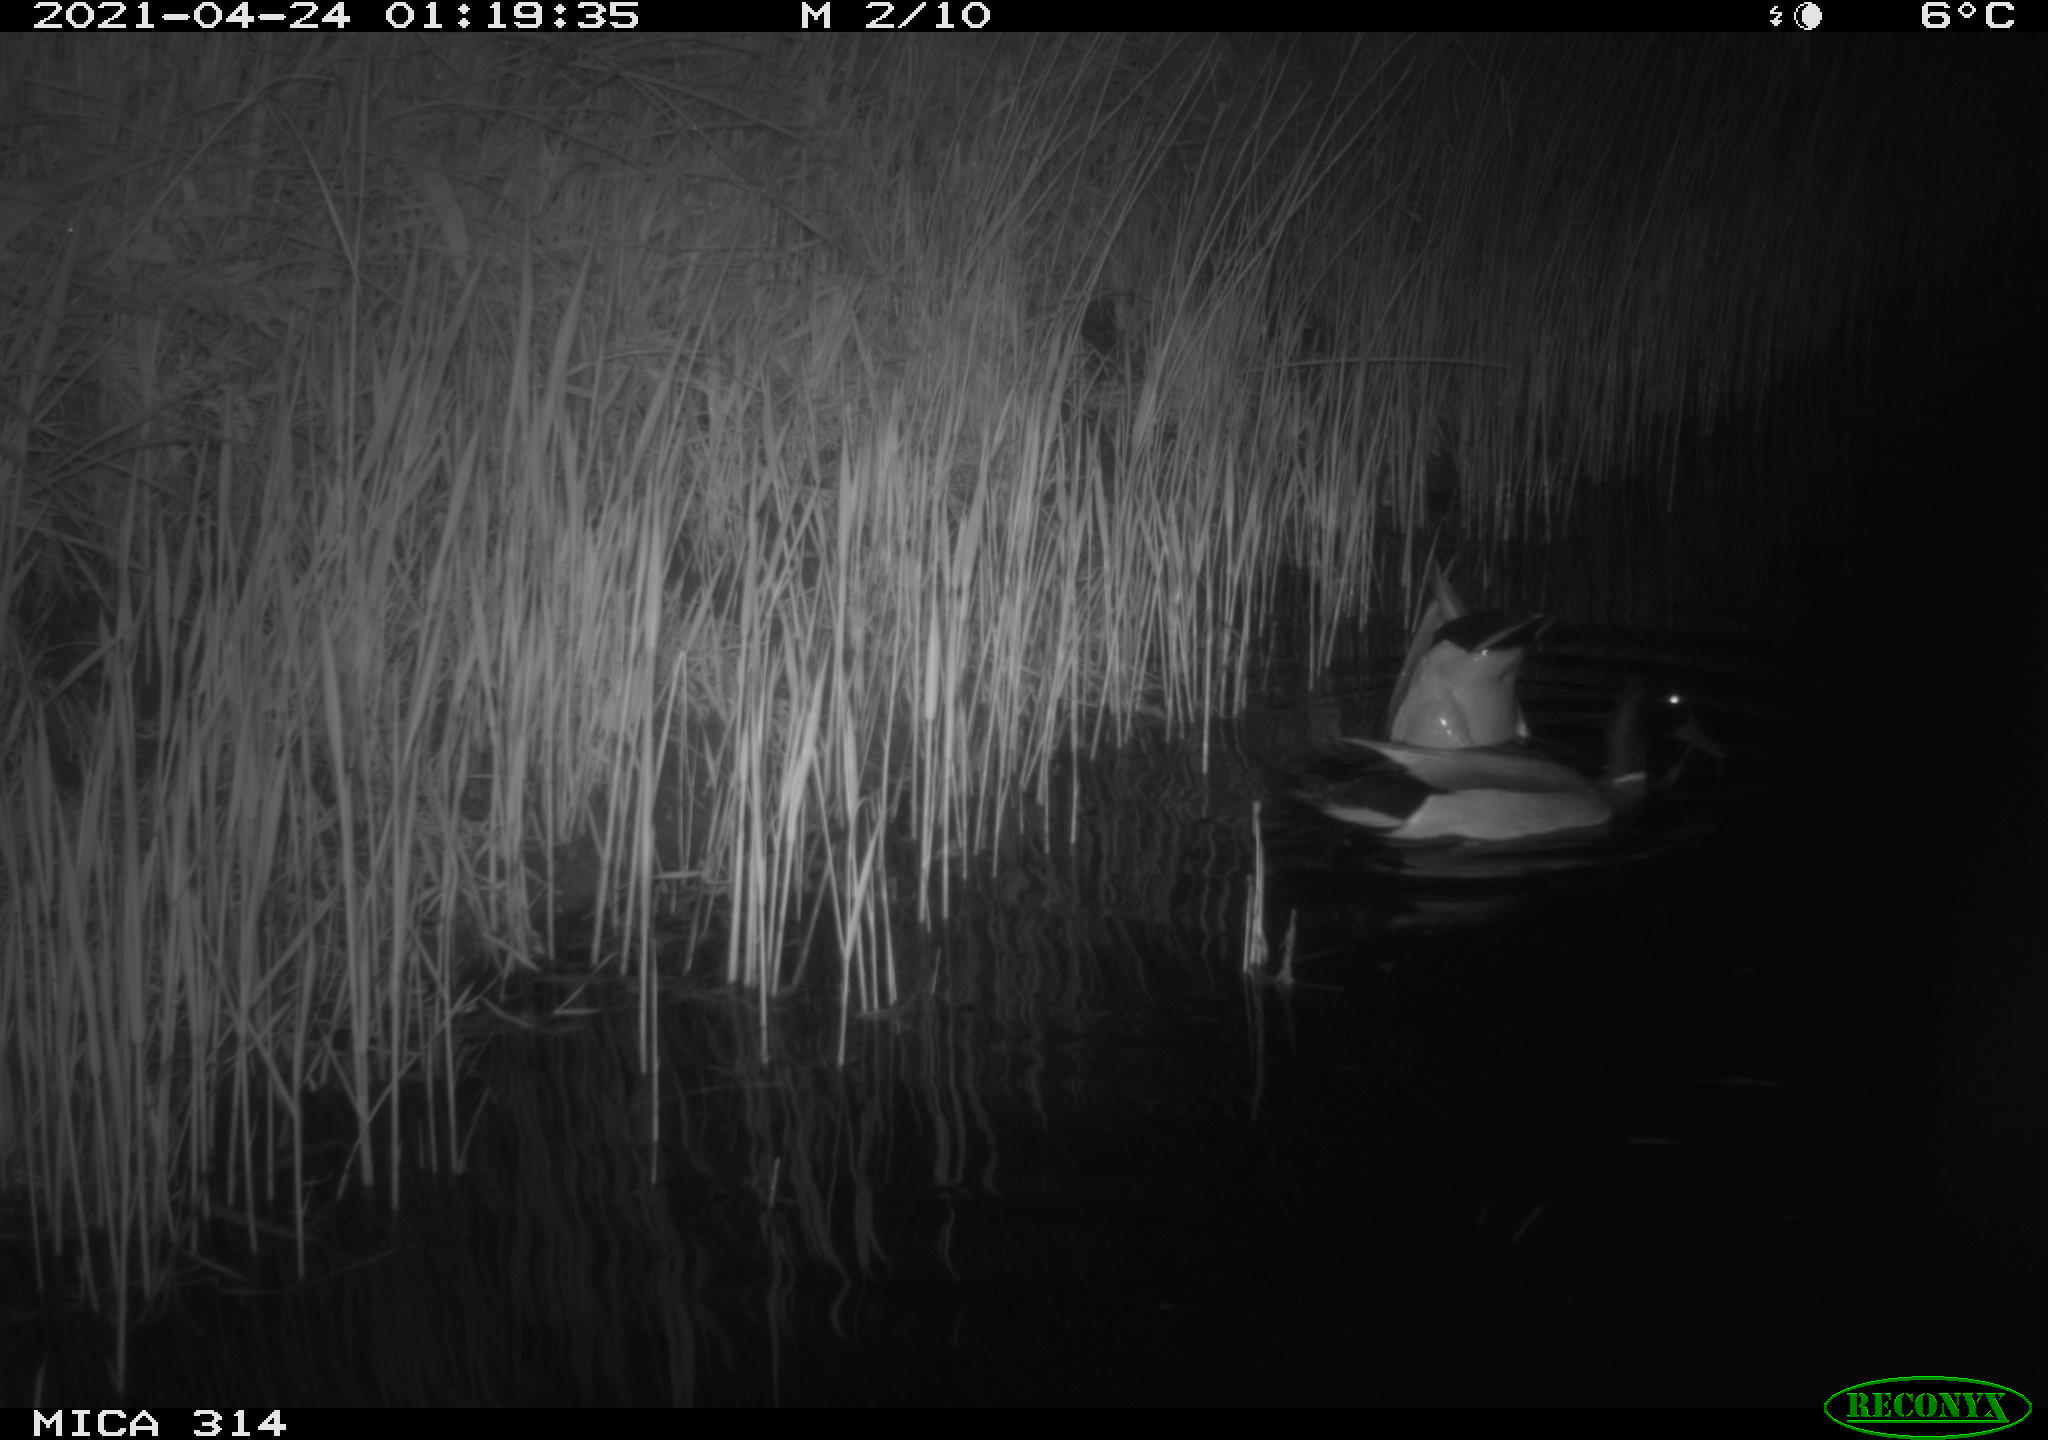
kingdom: Animalia
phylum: Chordata
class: Aves
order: Anseriformes
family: Anatidae
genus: Anas
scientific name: Anas platyrhynchos
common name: Mallard
